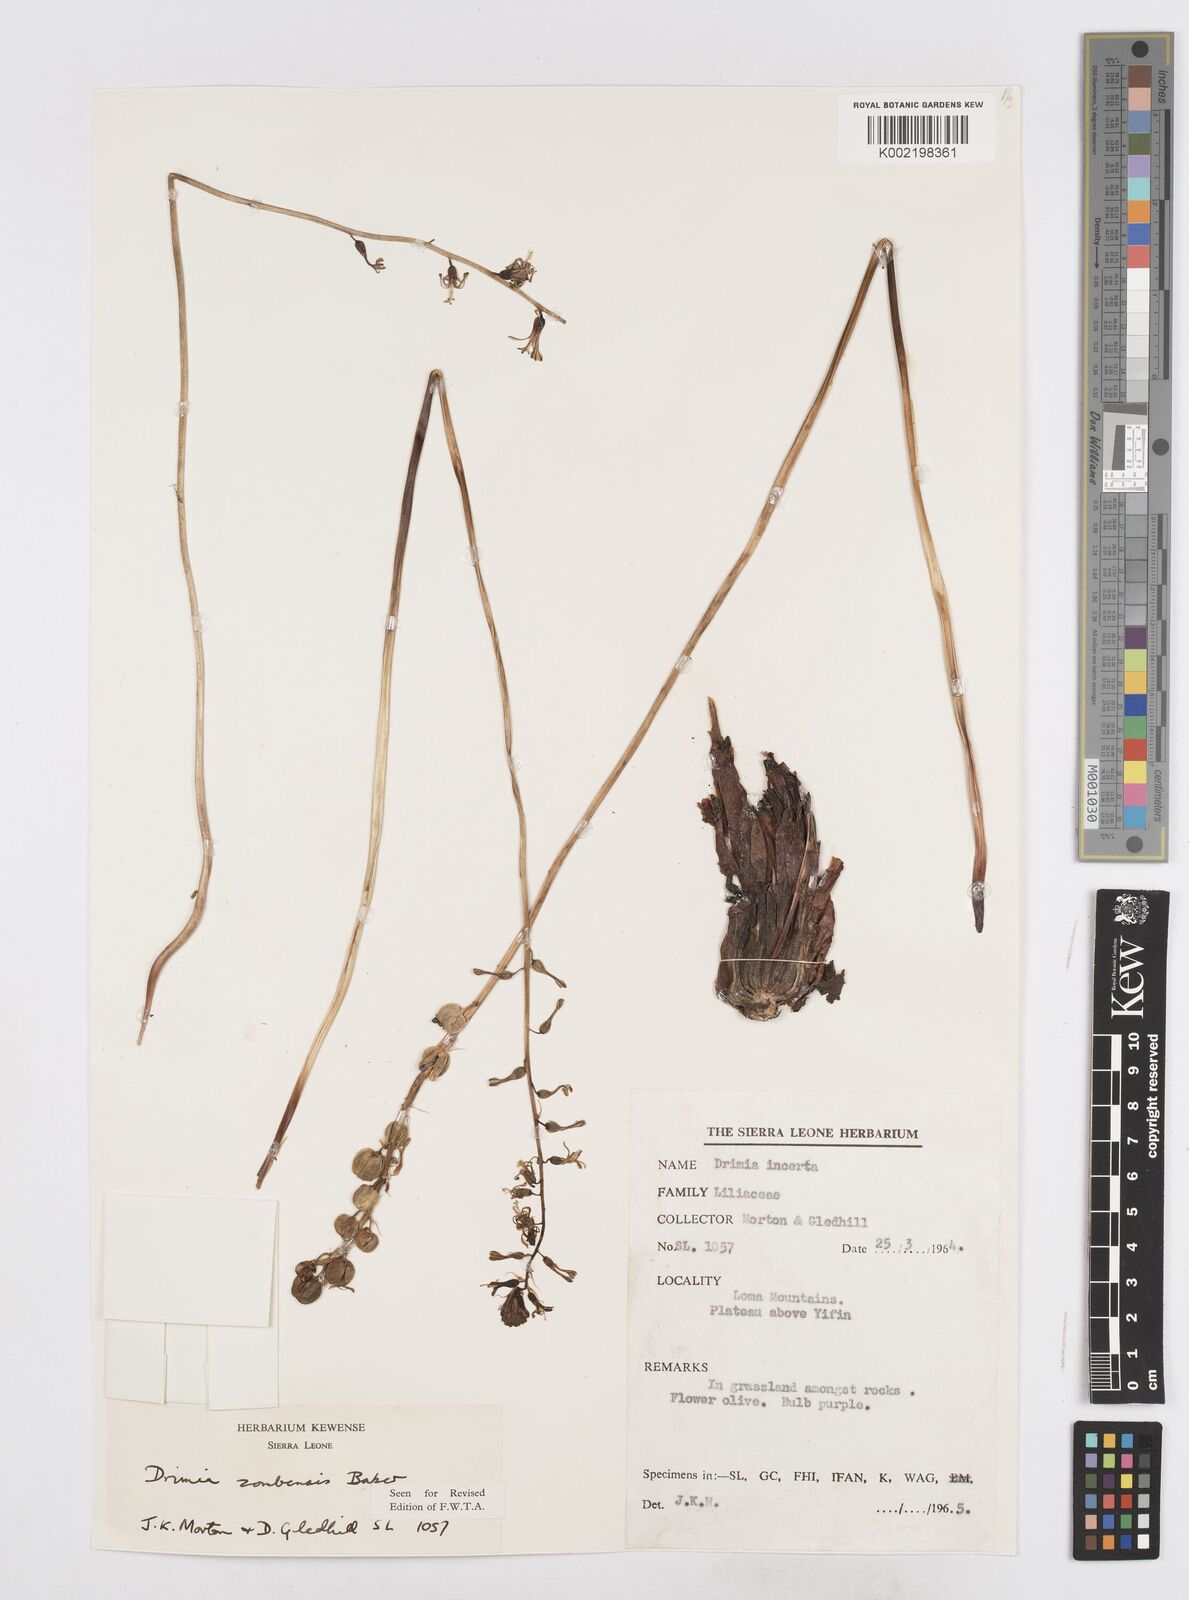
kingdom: Plantae
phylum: Tracheophyta
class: Liliopsida
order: Asparagales
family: Asparagaceae
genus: Drimia
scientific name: Drimia elata
